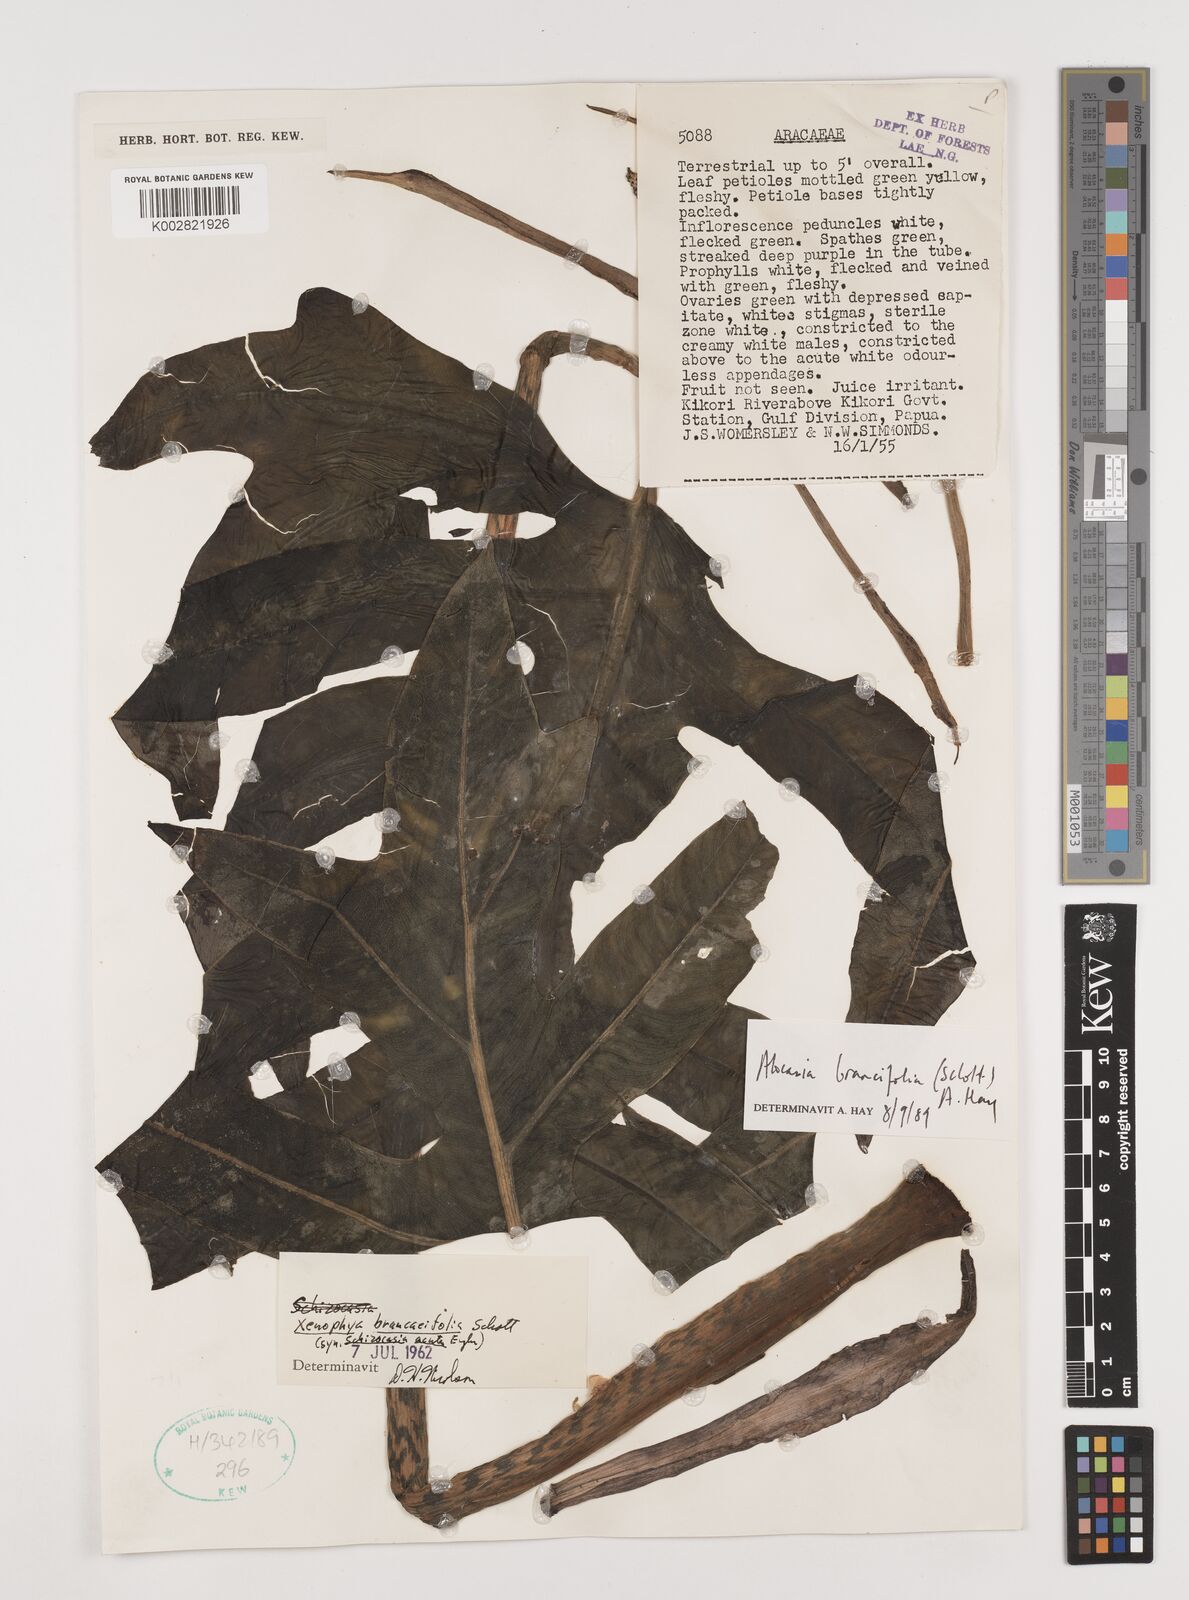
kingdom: Plantae
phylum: Tracheophyta
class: Liliopsida
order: Alismatales
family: Araceae
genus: Alocasia
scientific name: Alocasia brancifolia
